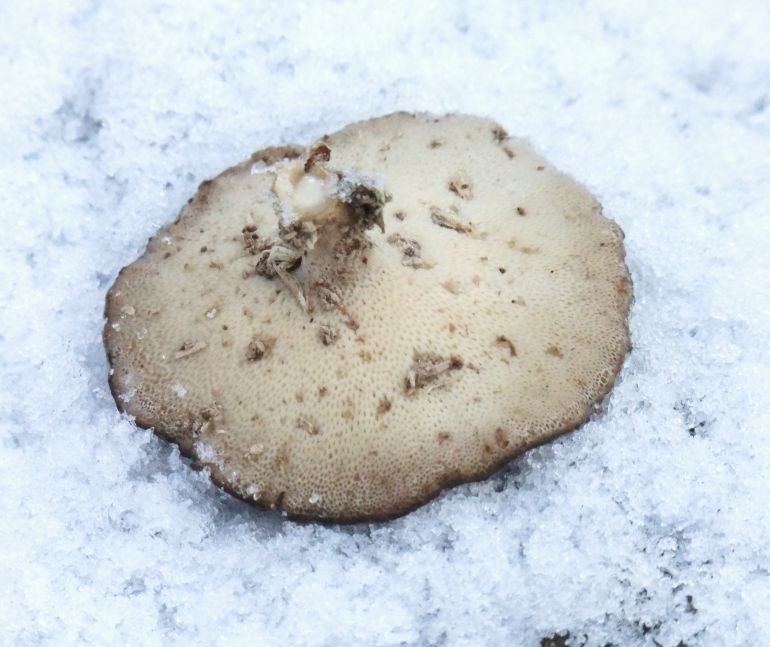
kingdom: Fungi
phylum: Basidiomycota
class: Agaricomycetes
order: Polyporales
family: Polyporaceae
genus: Lentinus
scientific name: Lentinus brumalis
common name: vinter-stilkporesvamp
